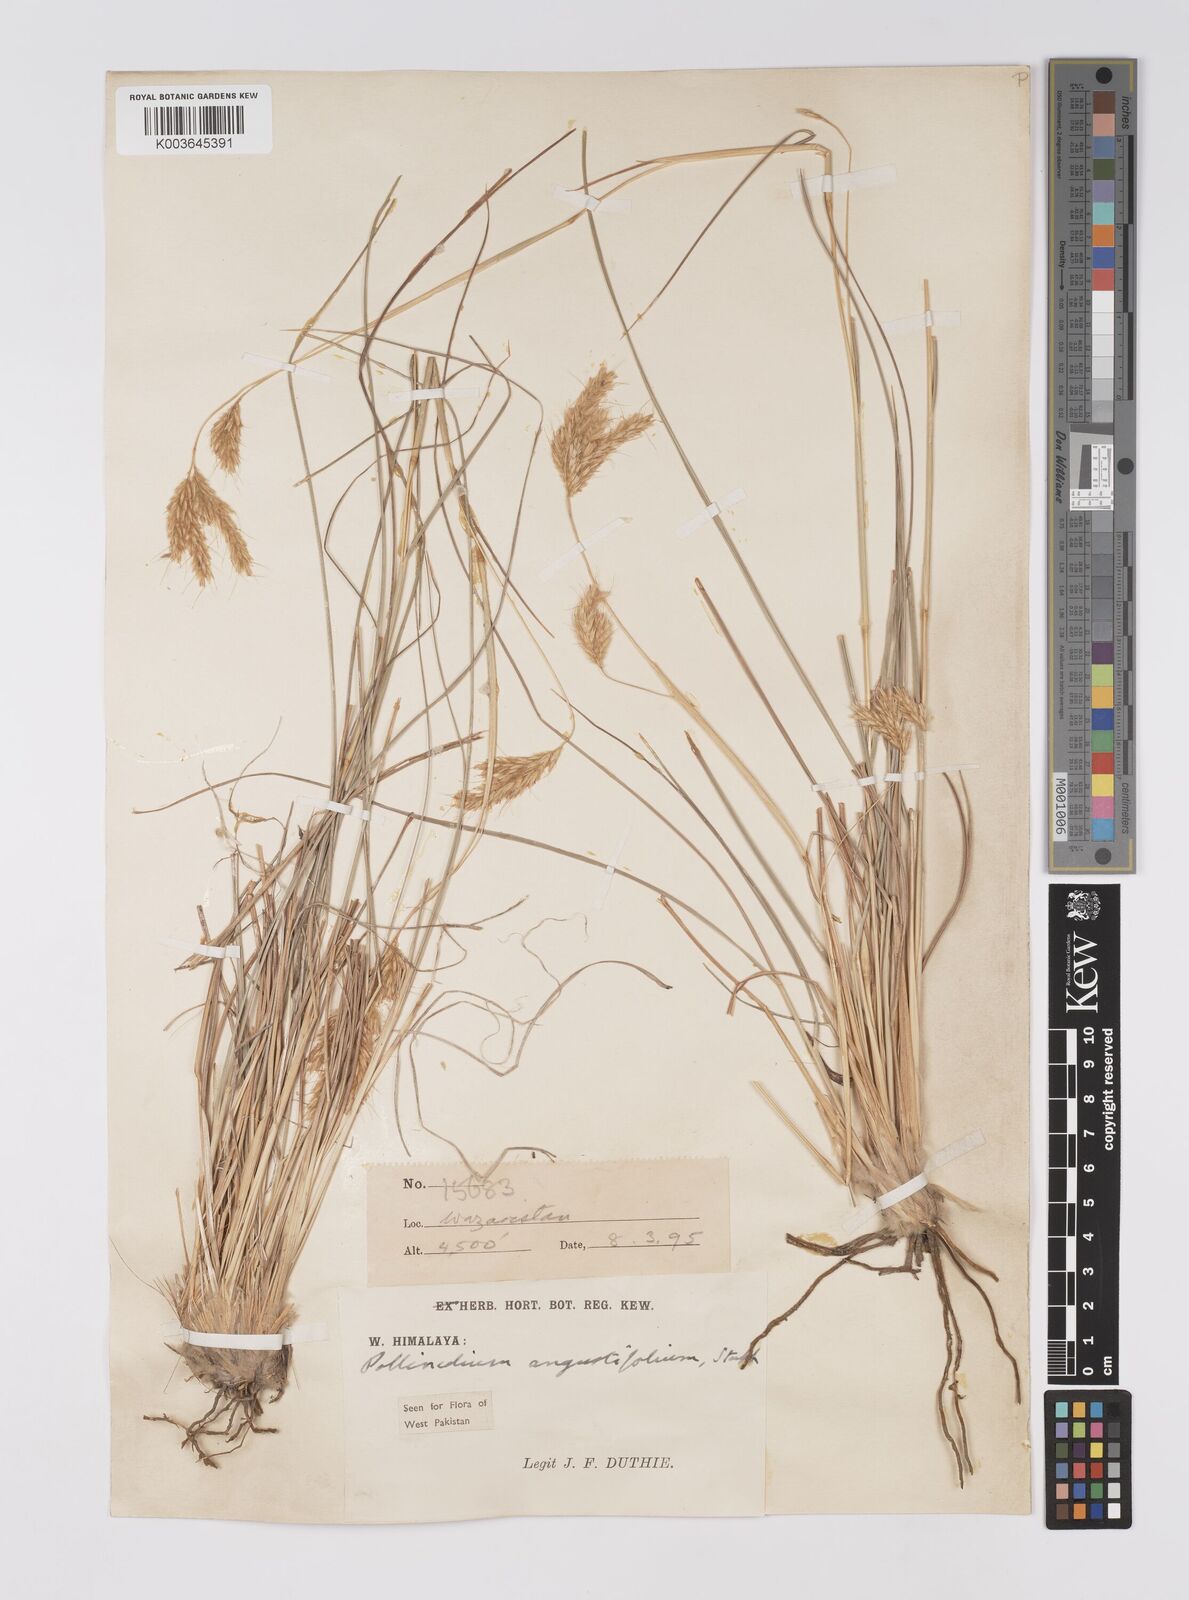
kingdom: Plantae
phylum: Tracheophyta
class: Liliopsida
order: Poales
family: Poaceae
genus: Eulaliopsis
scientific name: Eulaliopsis binata
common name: Baib grass
